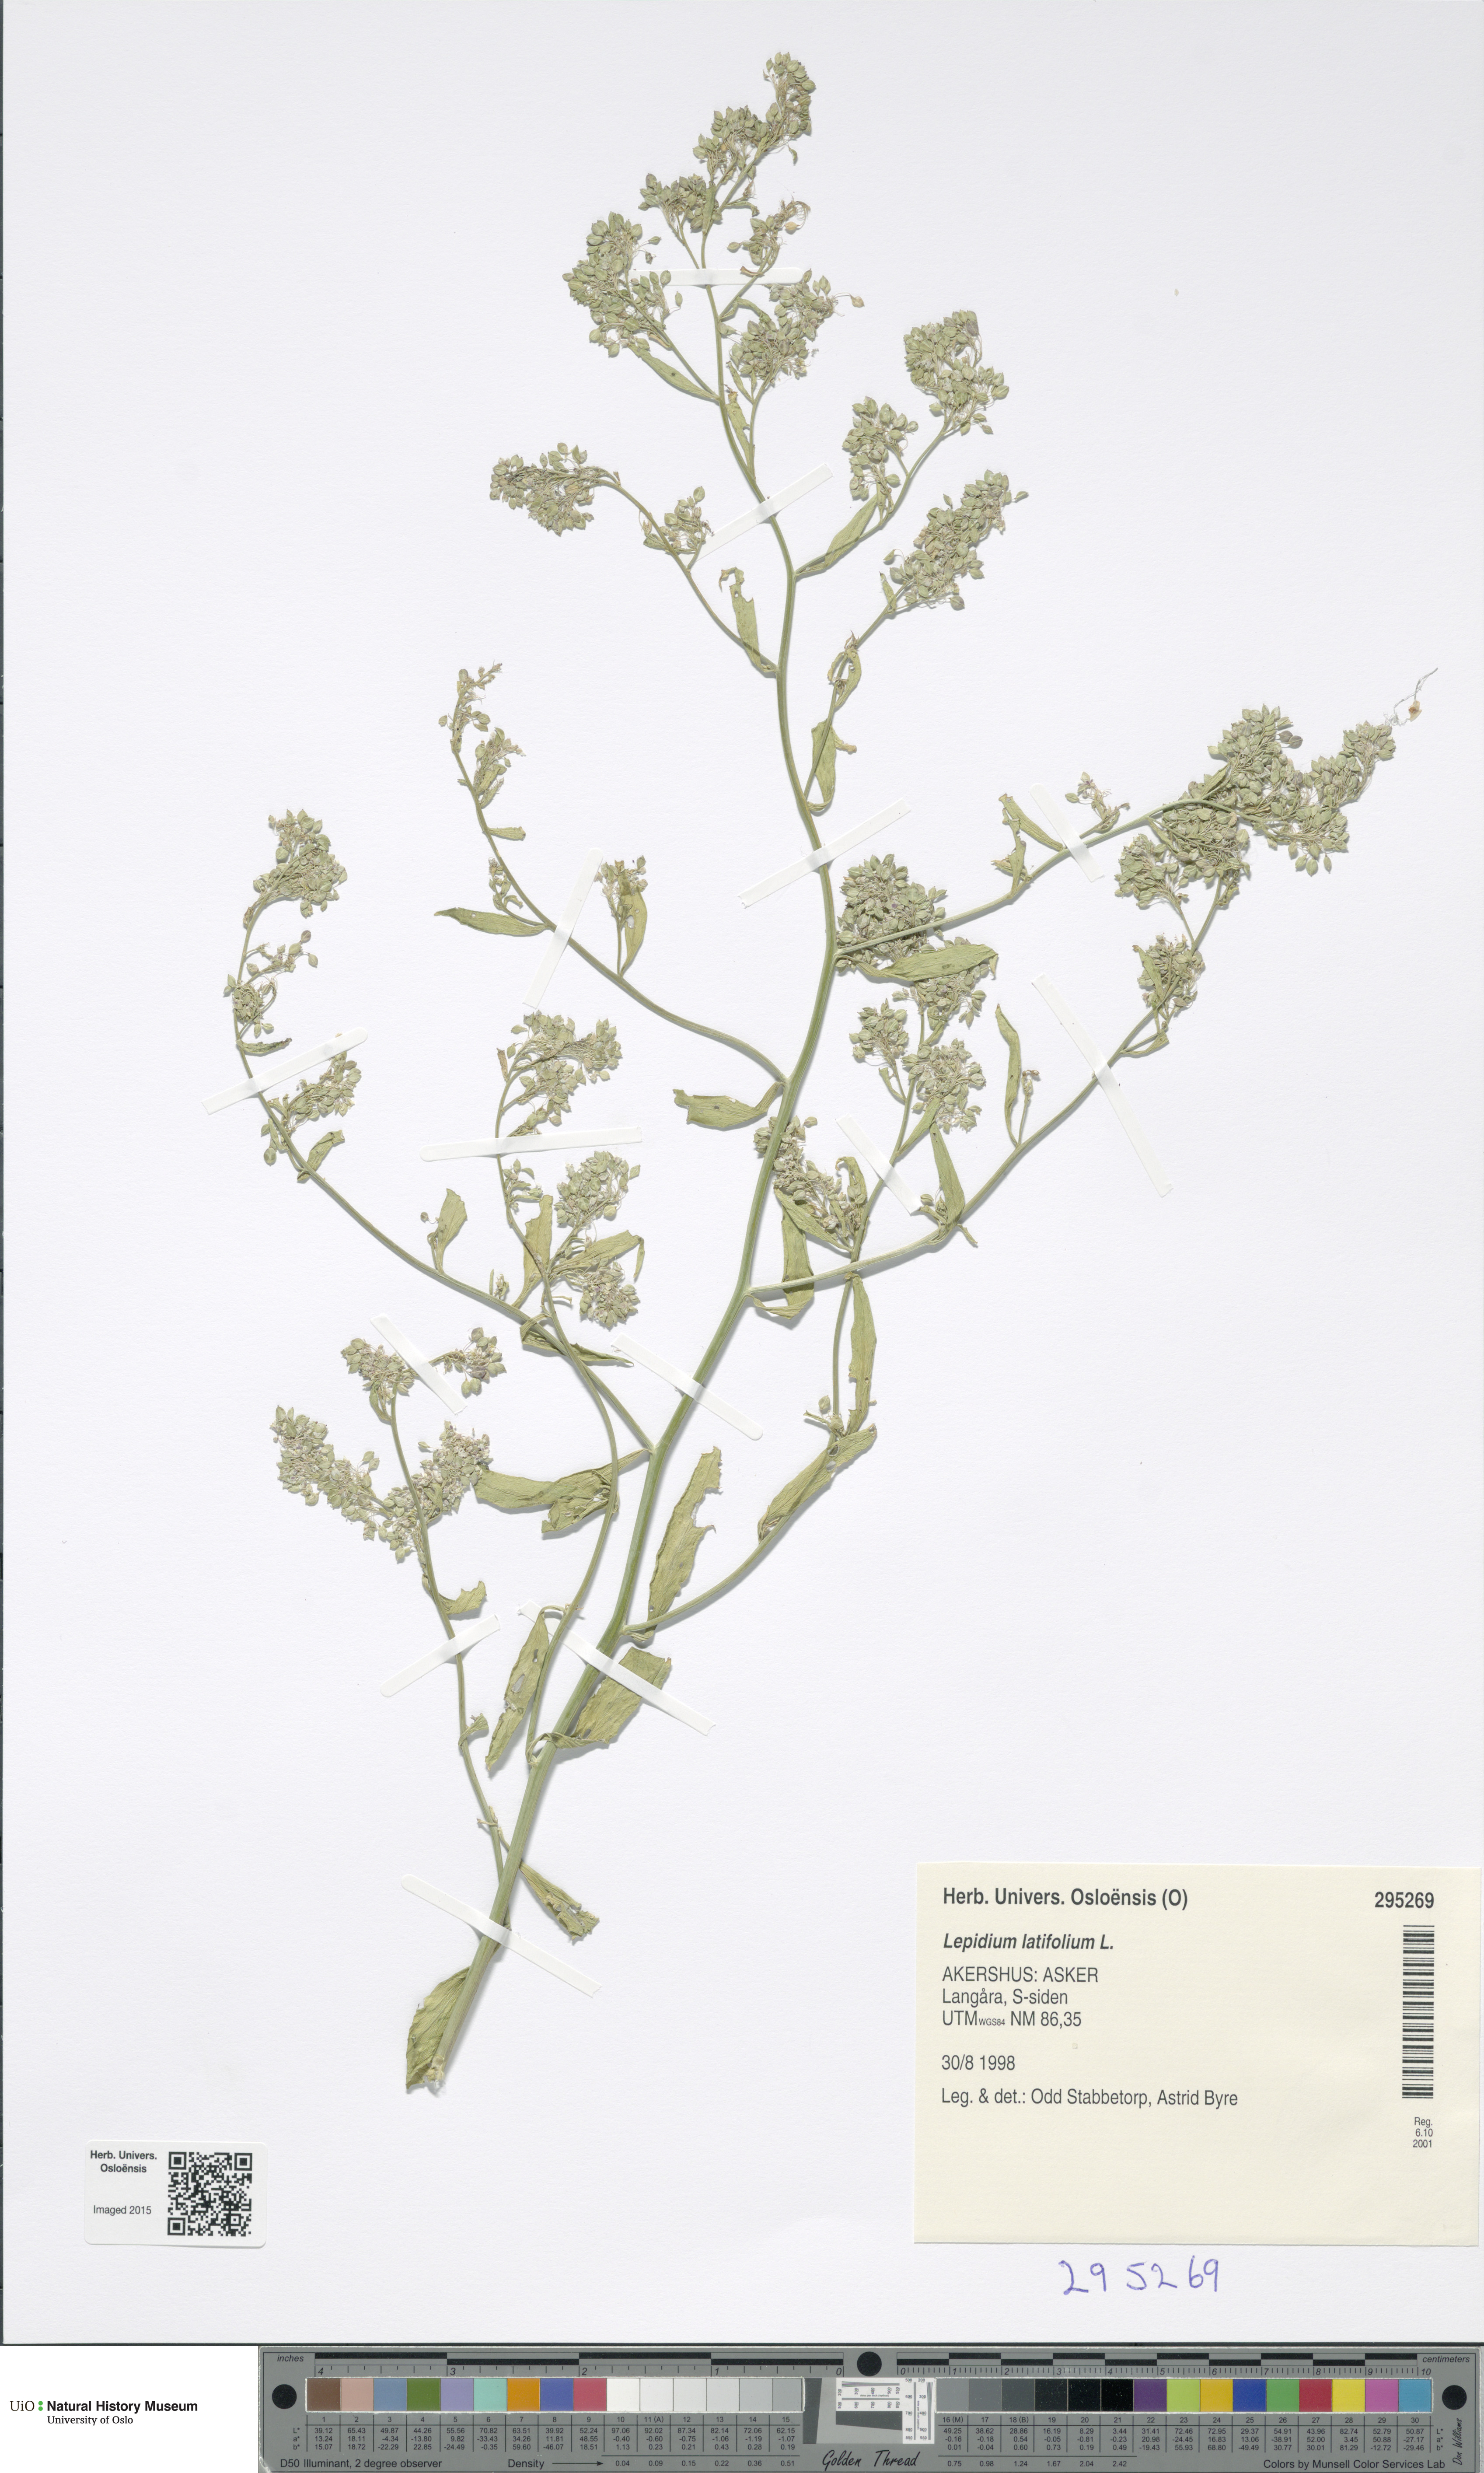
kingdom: Plantae
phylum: Tracheophyta
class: Magnoliopsida
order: Brassicales
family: Brassicaceae
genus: Lepidium
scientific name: Lepidium latifolium
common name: Dittander
